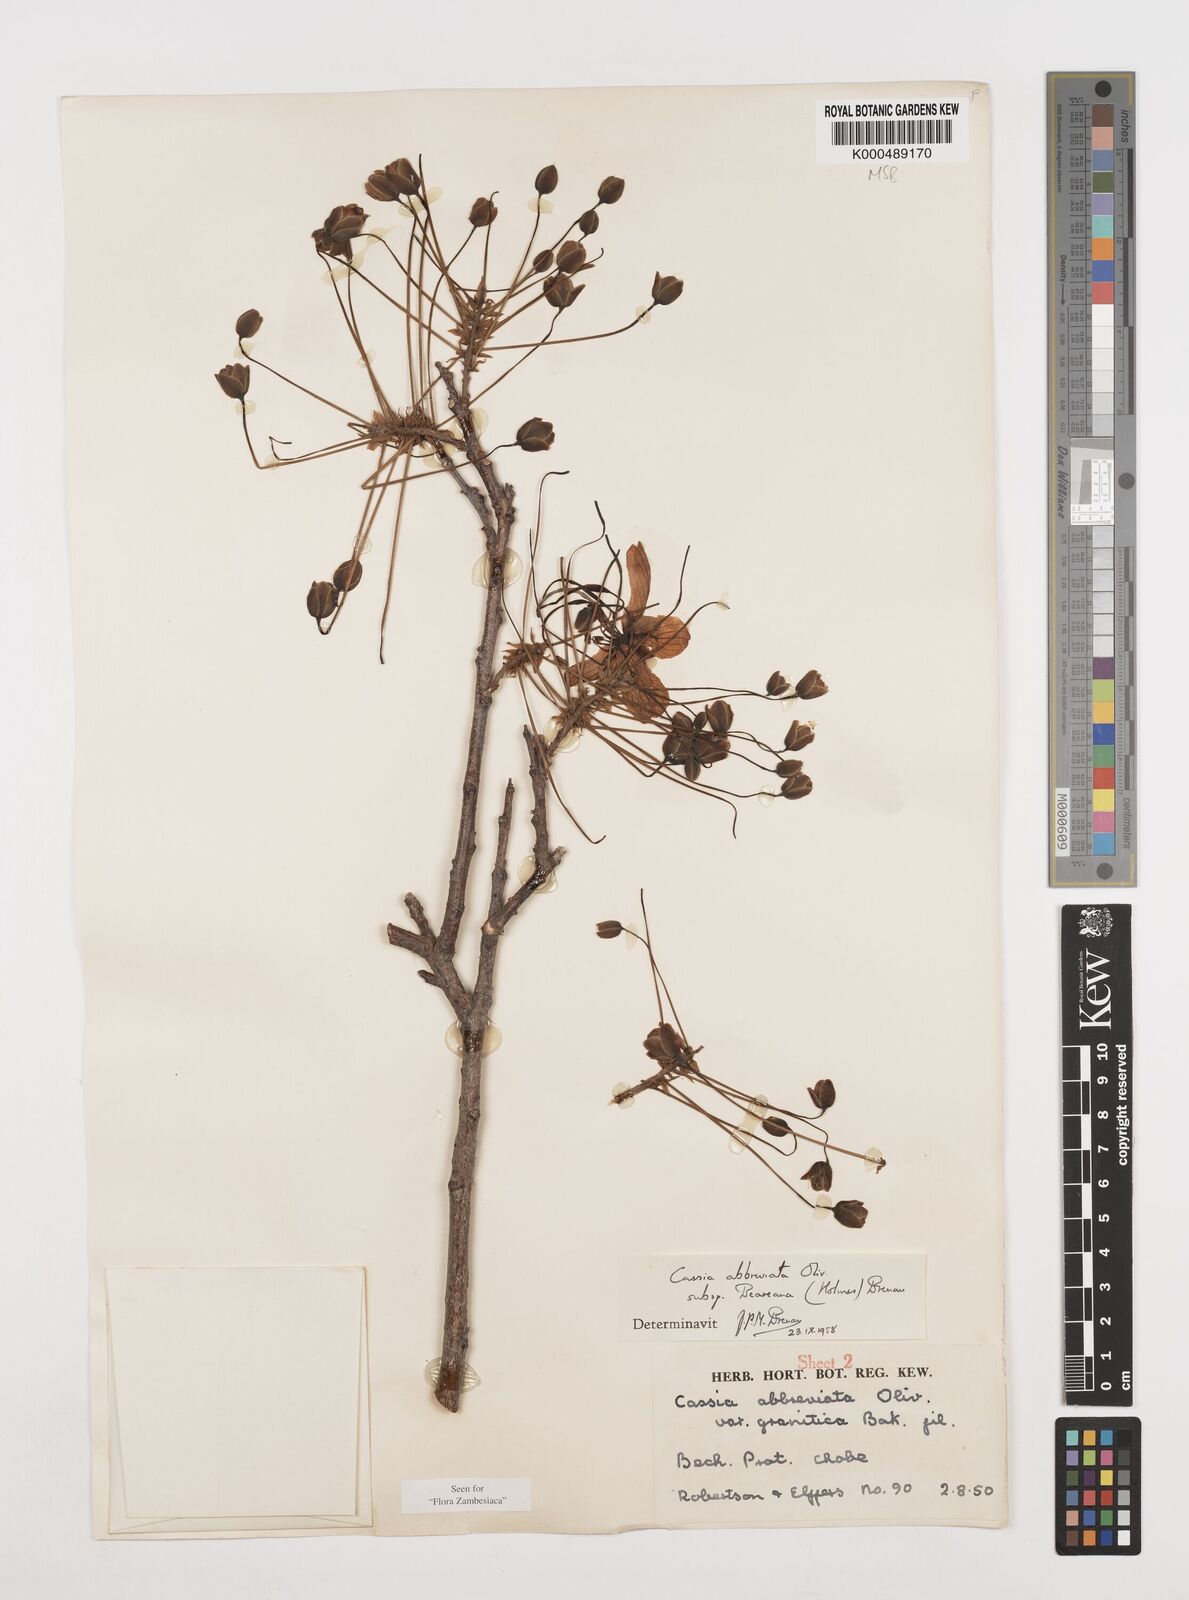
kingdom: Plantae
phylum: Tracheophyta
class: Magnoliopsida
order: Fabales
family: Fabaceae
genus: Cassia
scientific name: Cassia abbreviata
